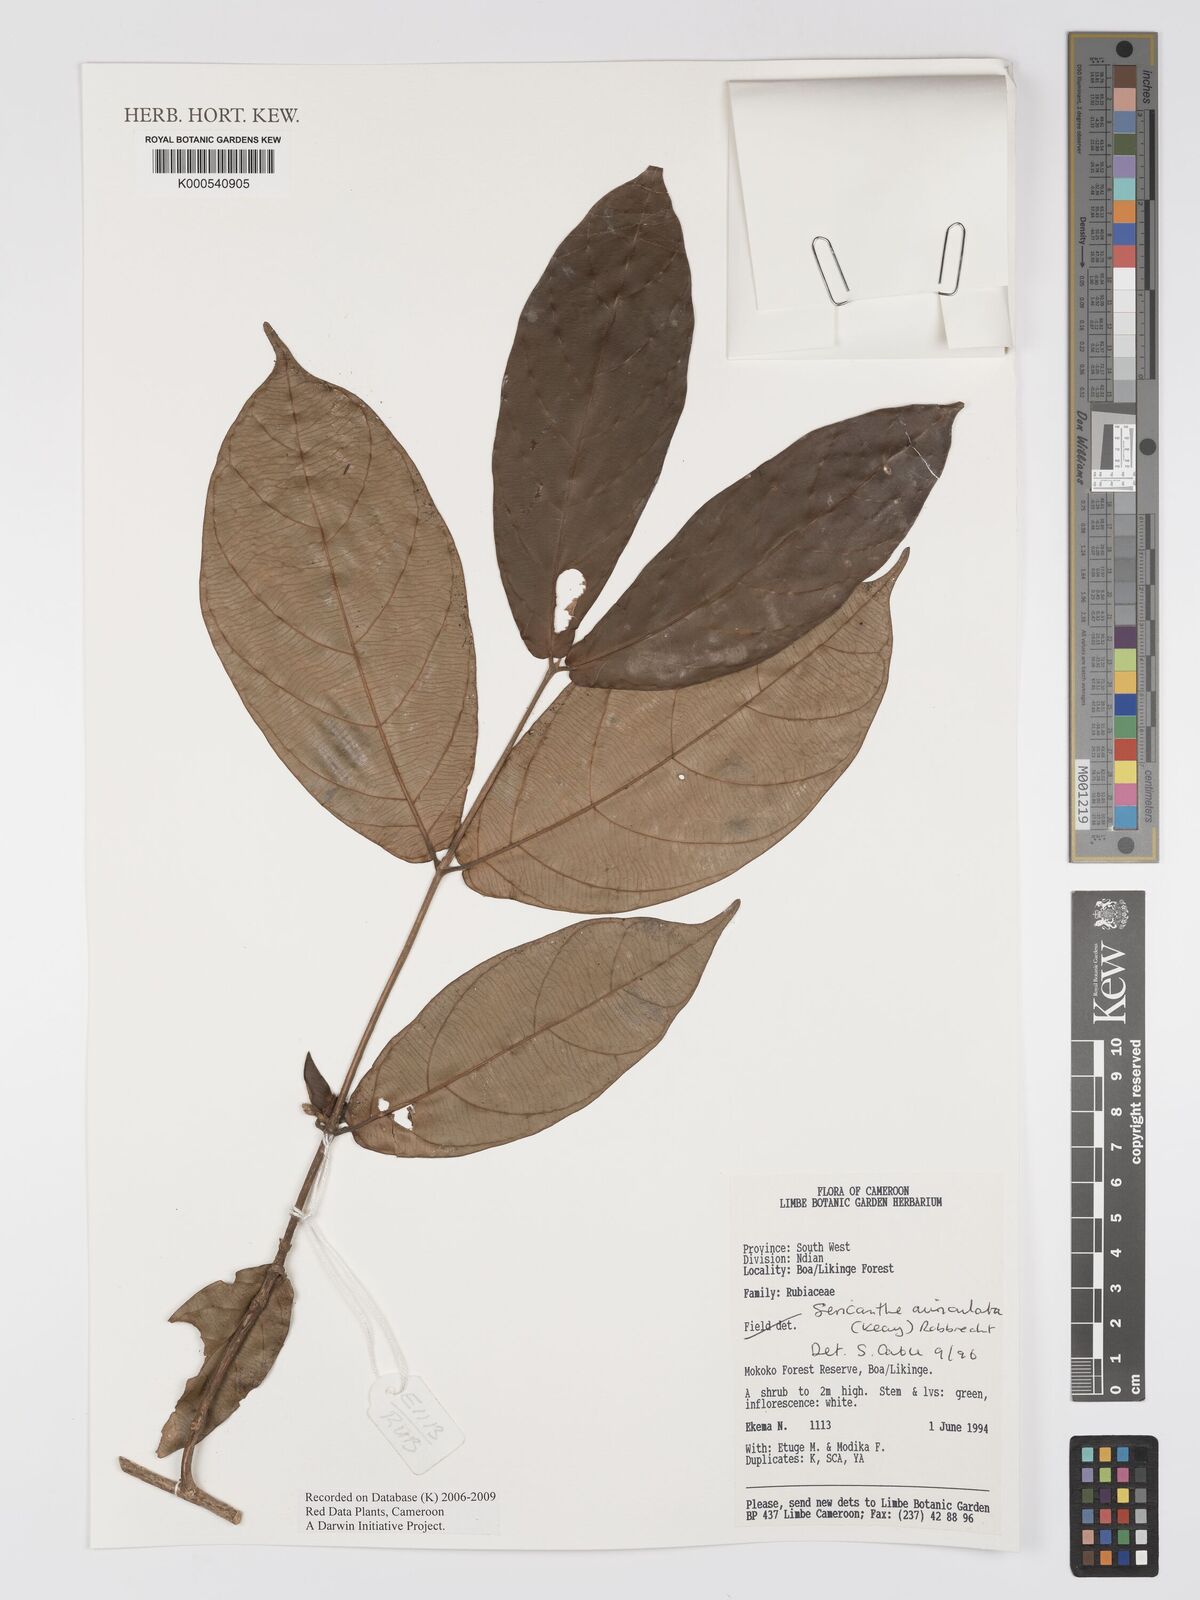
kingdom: Plantae
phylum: Tracheophyta
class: Magnoliopsida
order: Gentianales
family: Rubiaceae
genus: Sericanthe
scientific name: Sericanthe auriculata
